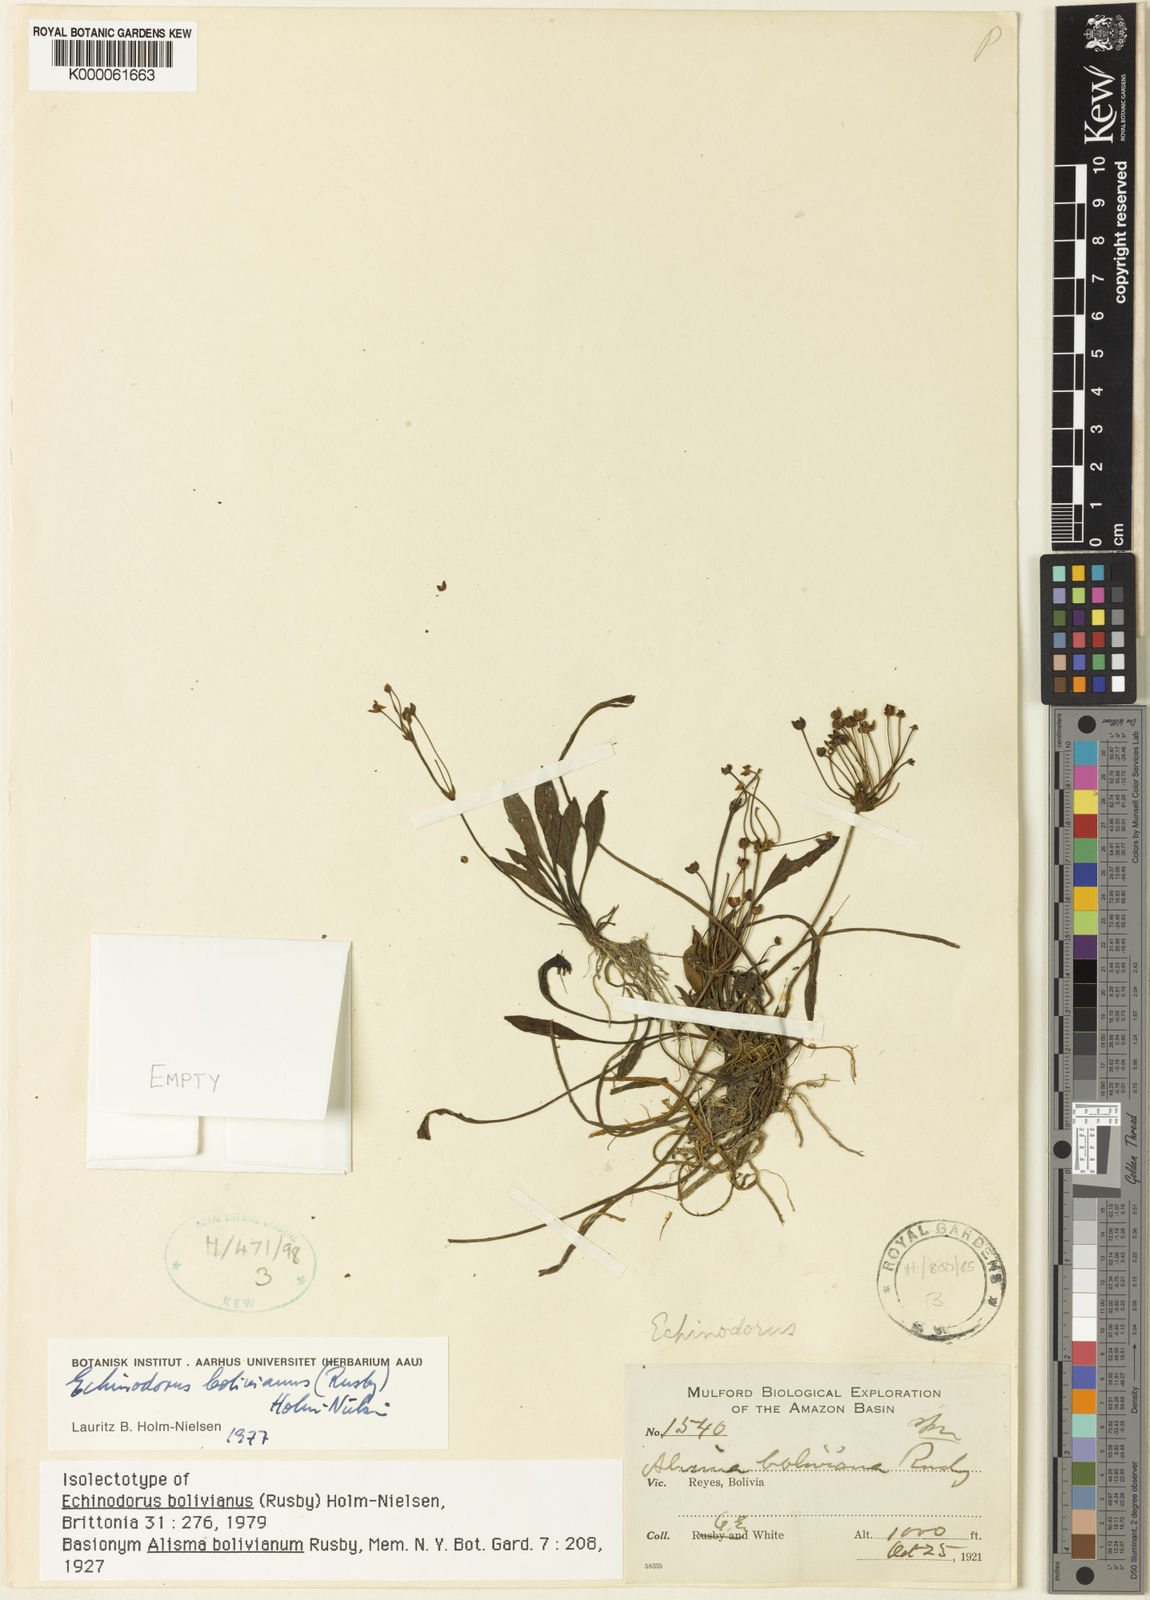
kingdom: Plantae
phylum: Tracheophyta
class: Liliopsida
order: Alismatales
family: Alismataceae
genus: Helanthium
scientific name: Helanthium tenellum
